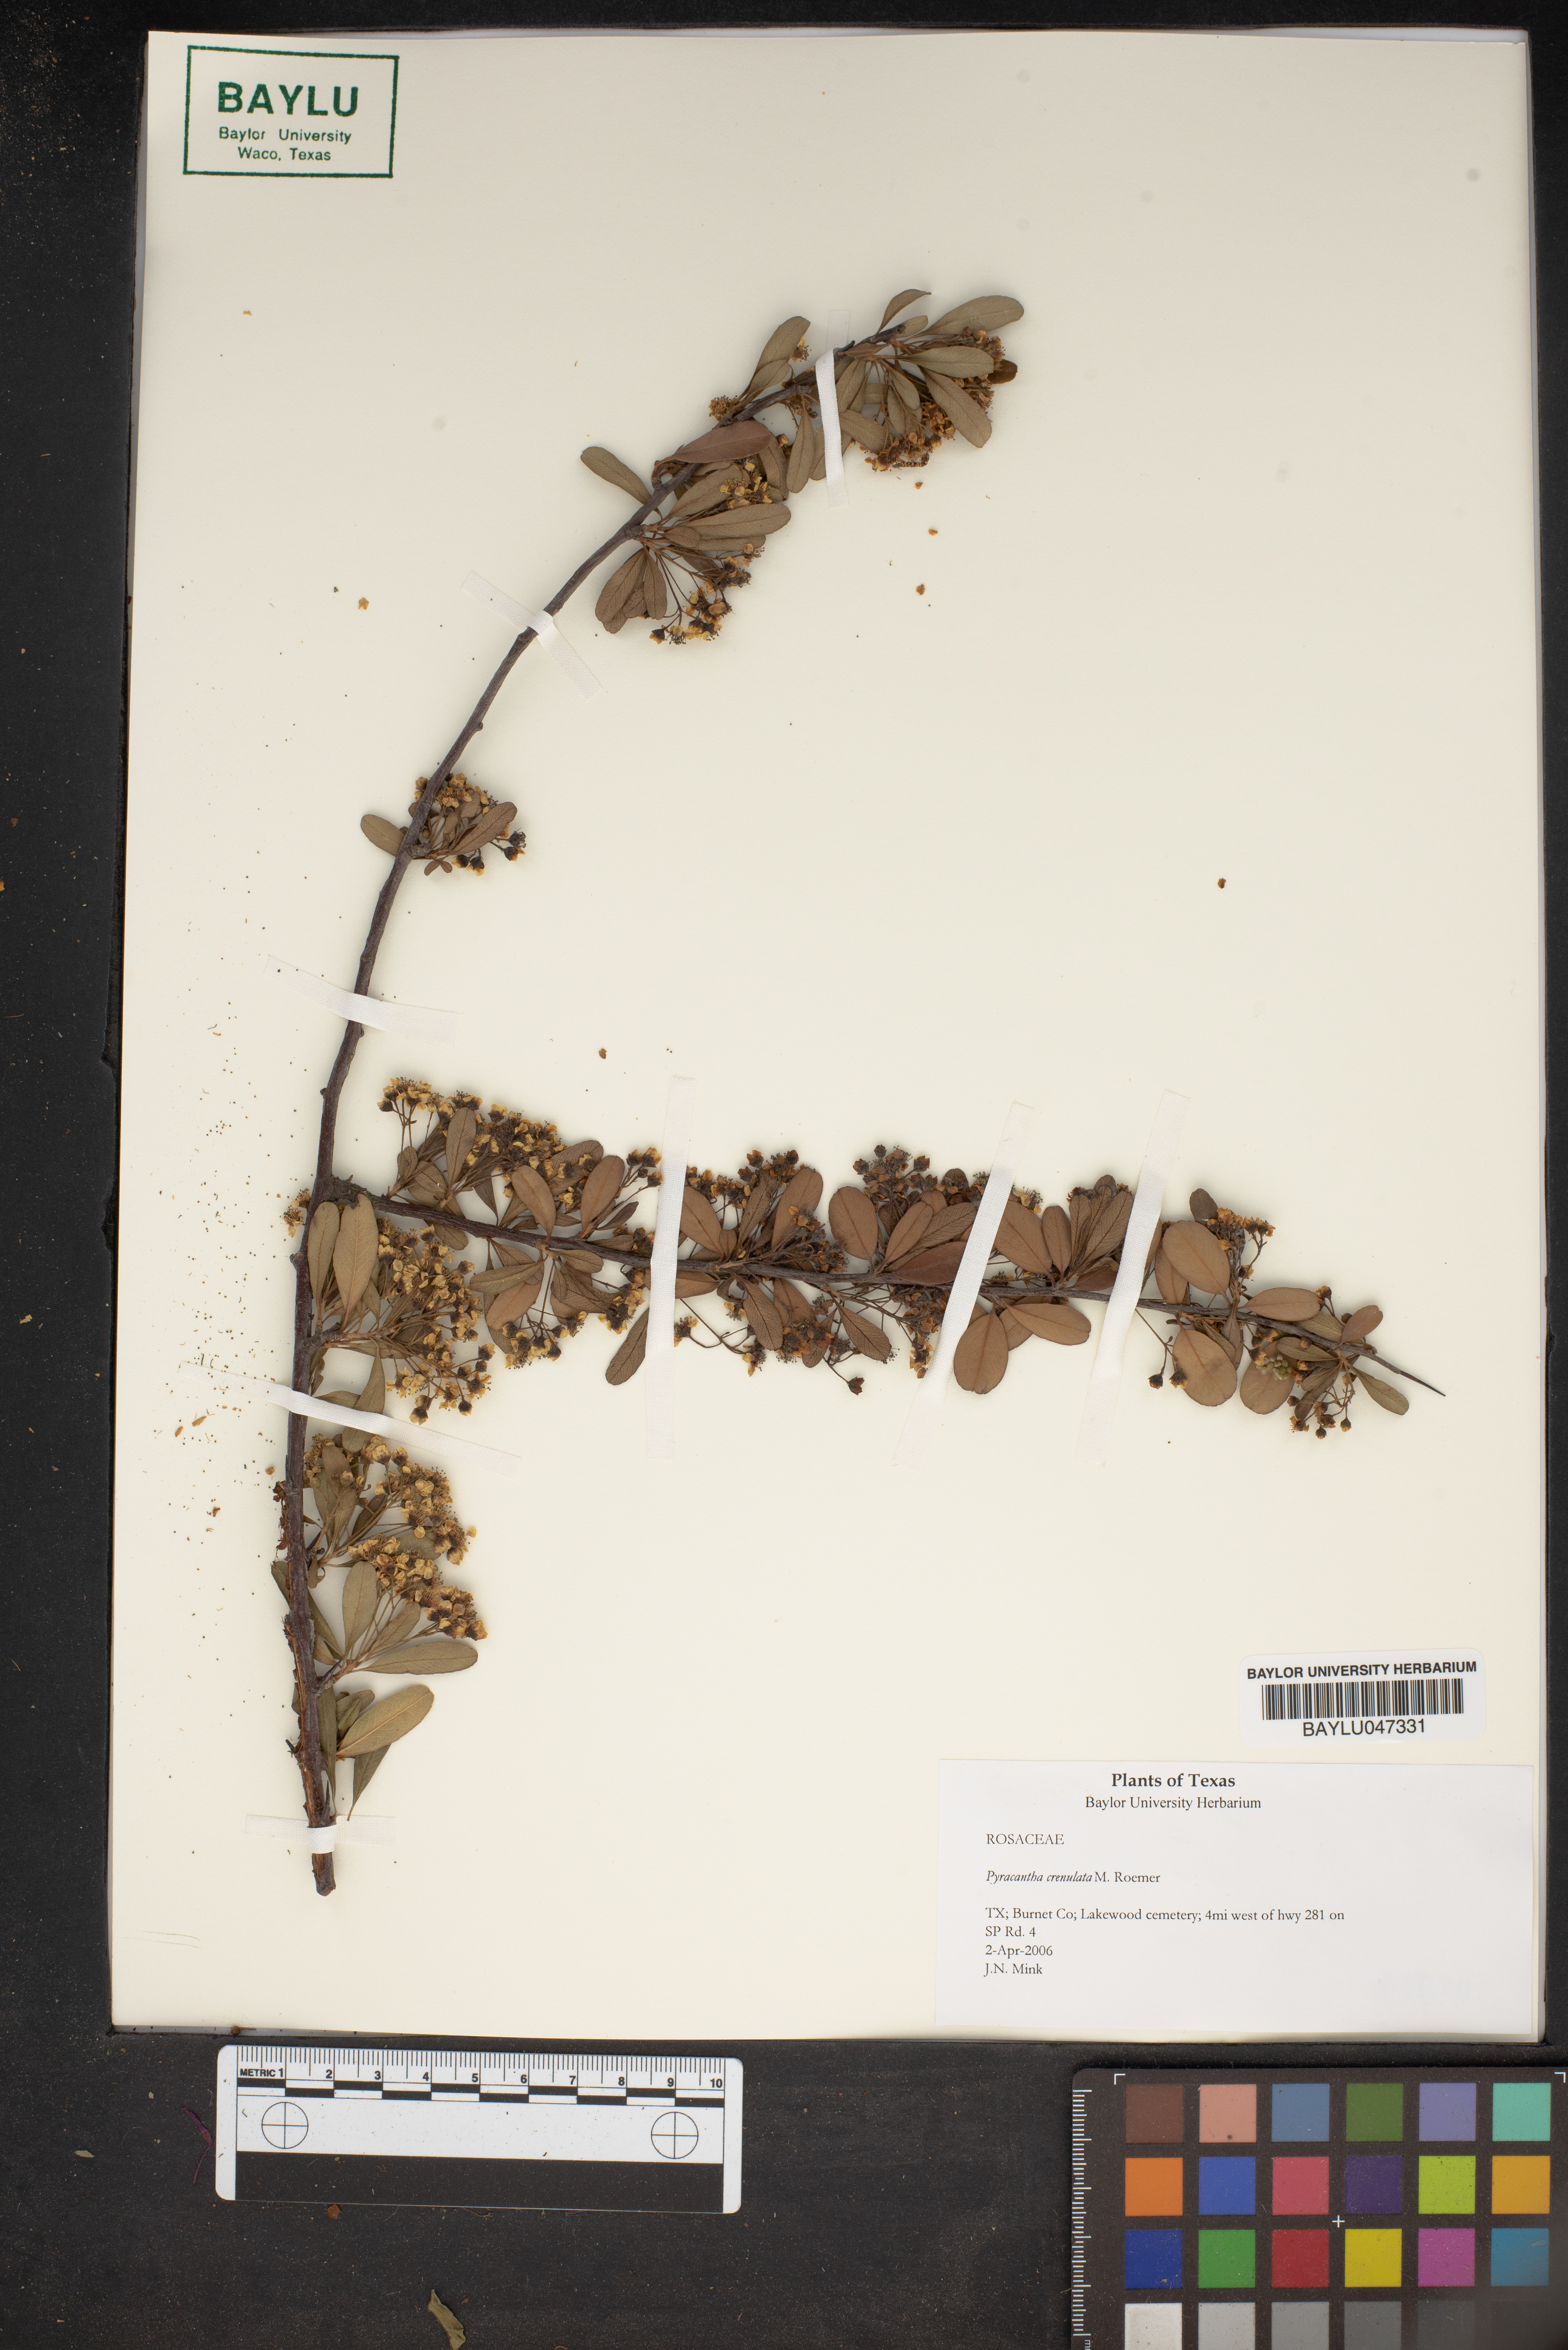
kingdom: Plantae
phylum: Tracheophyta
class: Magnoliopsida
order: Rosales
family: Rosaceae
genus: Pyracantha
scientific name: Pyracantha crenulata
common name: Nepalese firethorn
